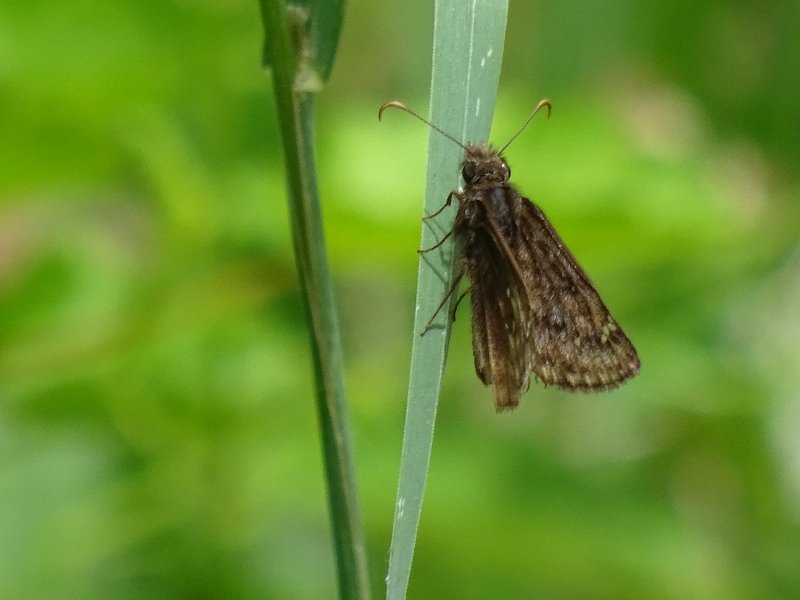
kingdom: Animalia
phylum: Arthropoda
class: Insecta
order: Lepidoptera
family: Hesperiidae
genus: Erynnis
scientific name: Erynnis
